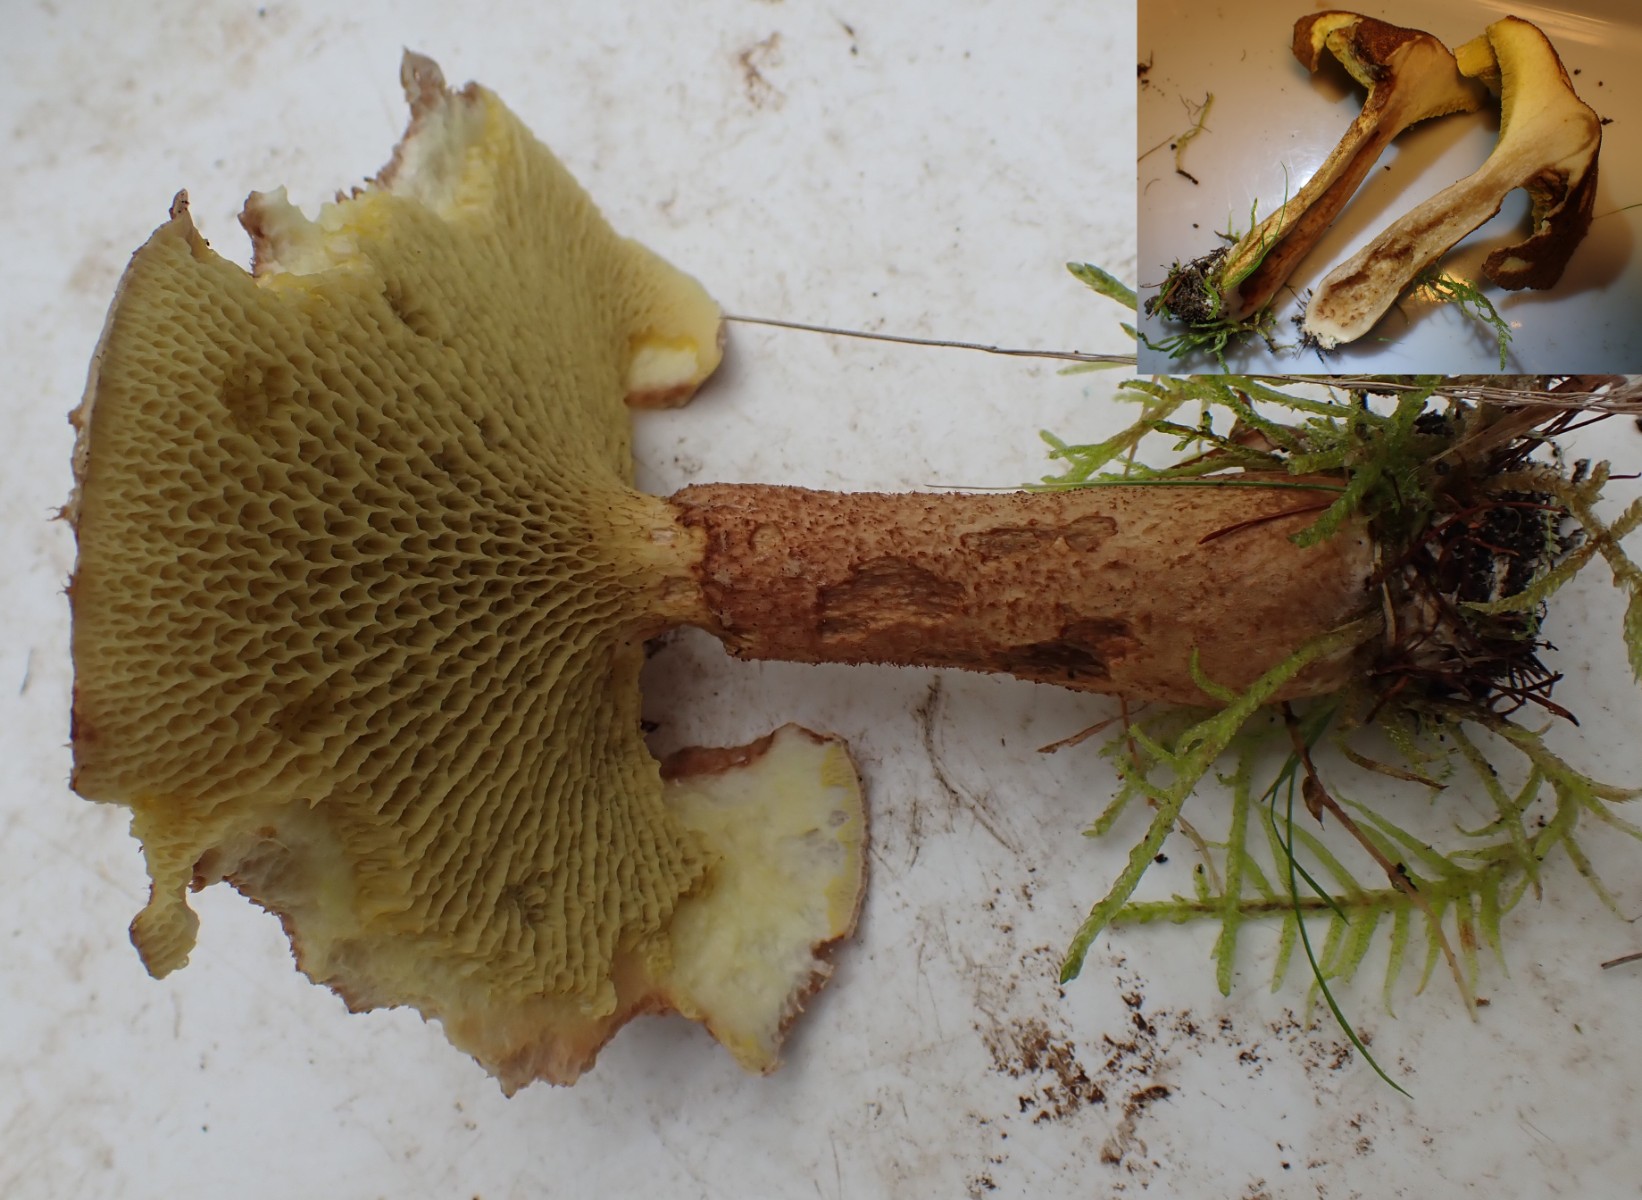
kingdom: Fungi
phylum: Basidiomycota
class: Agaricomycetes
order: Boletales
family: Suillaceae
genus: Suillus
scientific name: Suillus cavipes
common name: hulstokket slimrørhat
